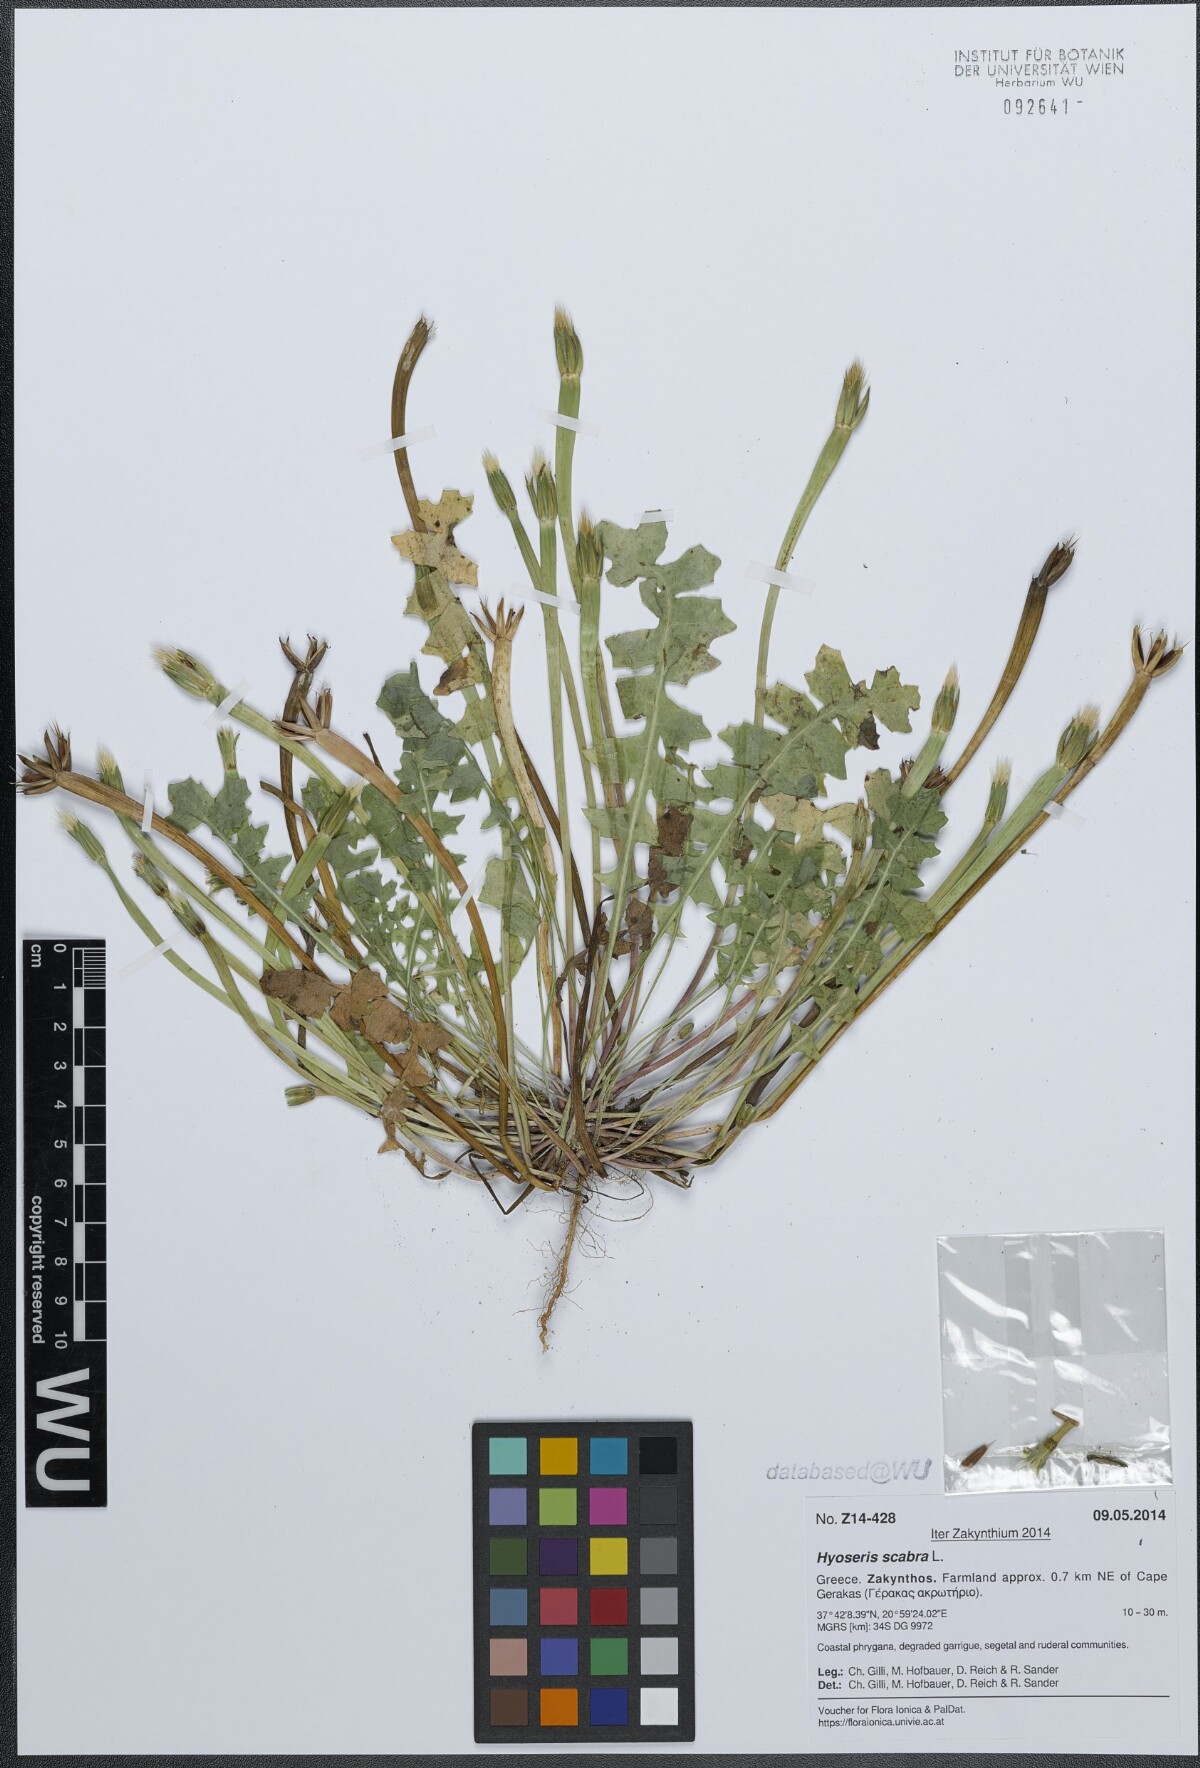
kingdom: Plantae
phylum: Tracheophyta
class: Magnoliopsida
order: Asterales
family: Asteraceae
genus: Hyoseris
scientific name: Hyoseris scabra
